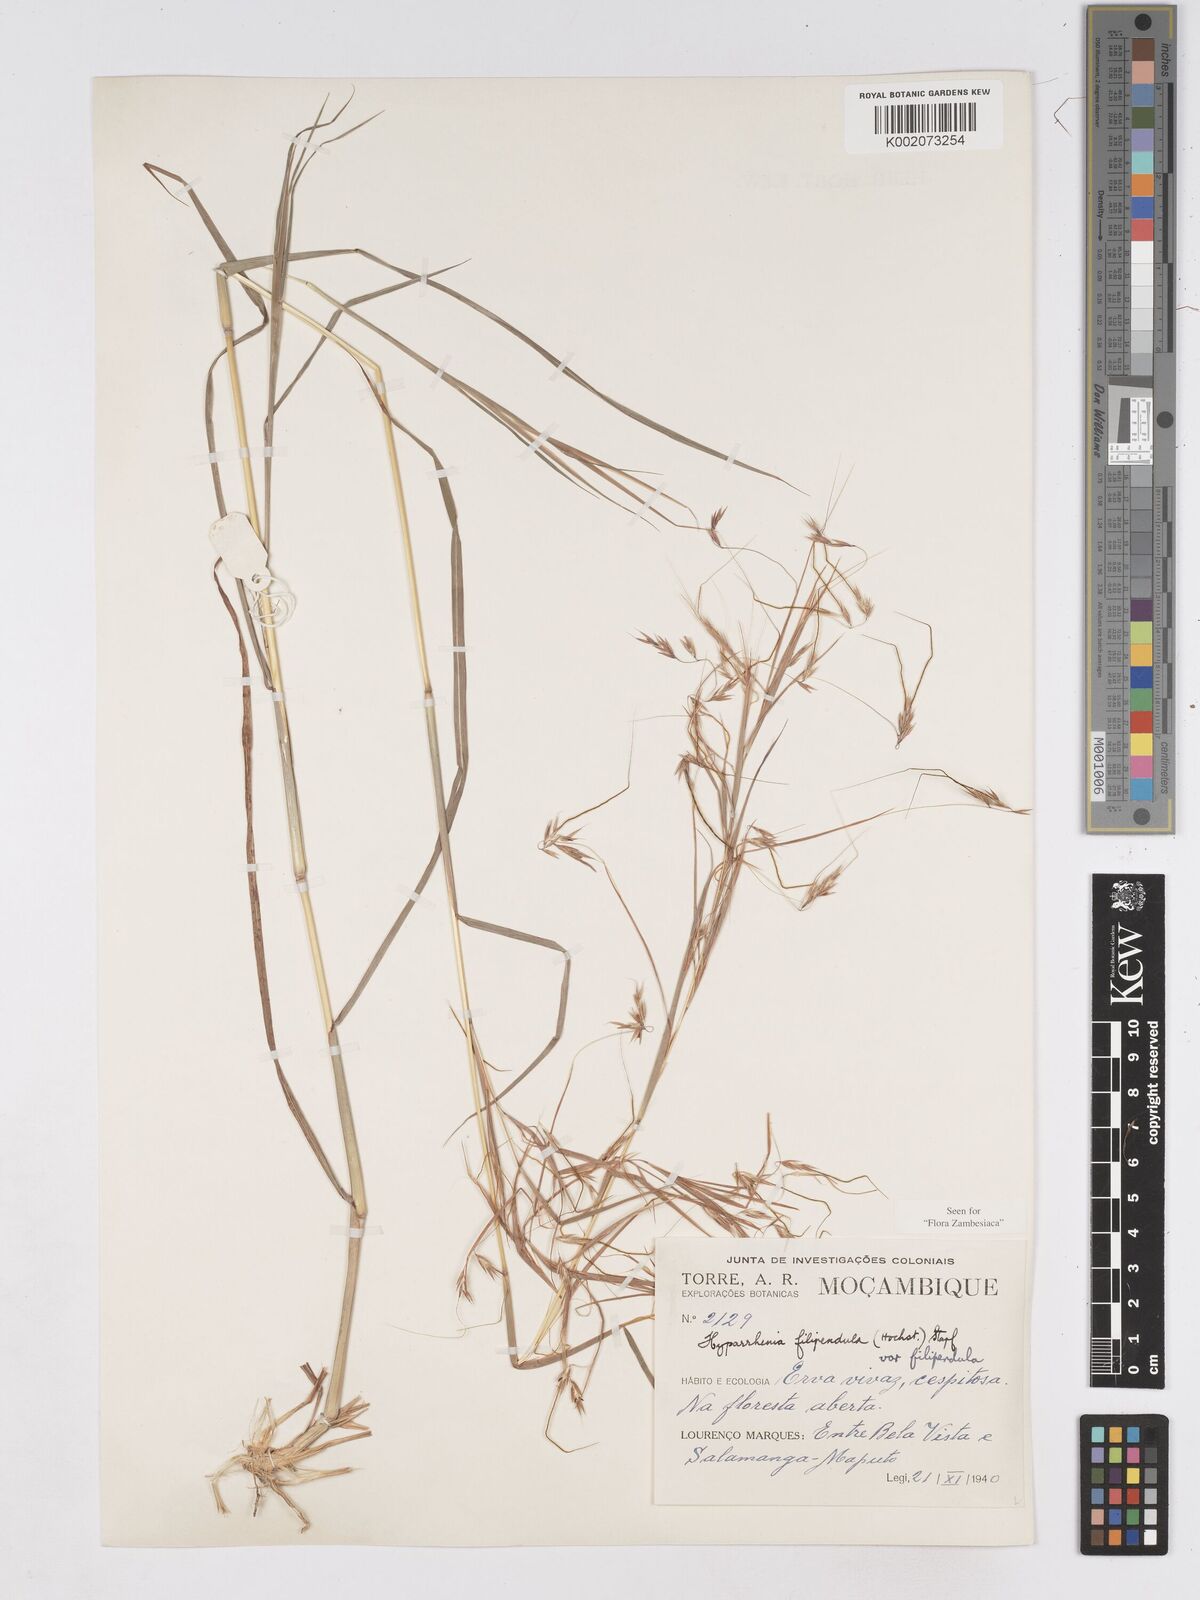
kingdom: Plantae
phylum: Tracheophyta
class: Liliopsida
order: Poales
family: Poaceae
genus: Hyparrhenia
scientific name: Hyparrhenia filipendula
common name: Tambookie grass
